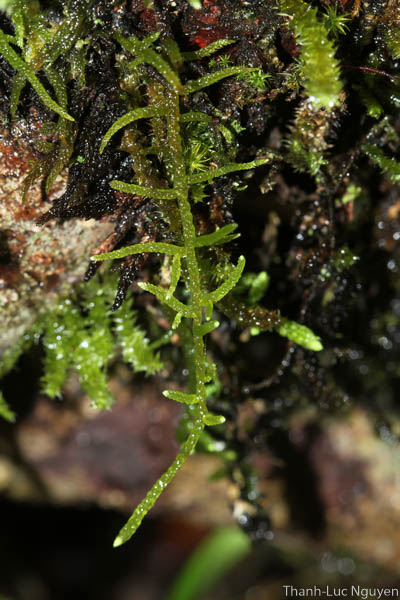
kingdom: Plantae
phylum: Bryophyta
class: Bryopsida
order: Hypnales
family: Meteoriaceae
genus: Cryptopapillaria
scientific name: Cryptopapillaria feae
